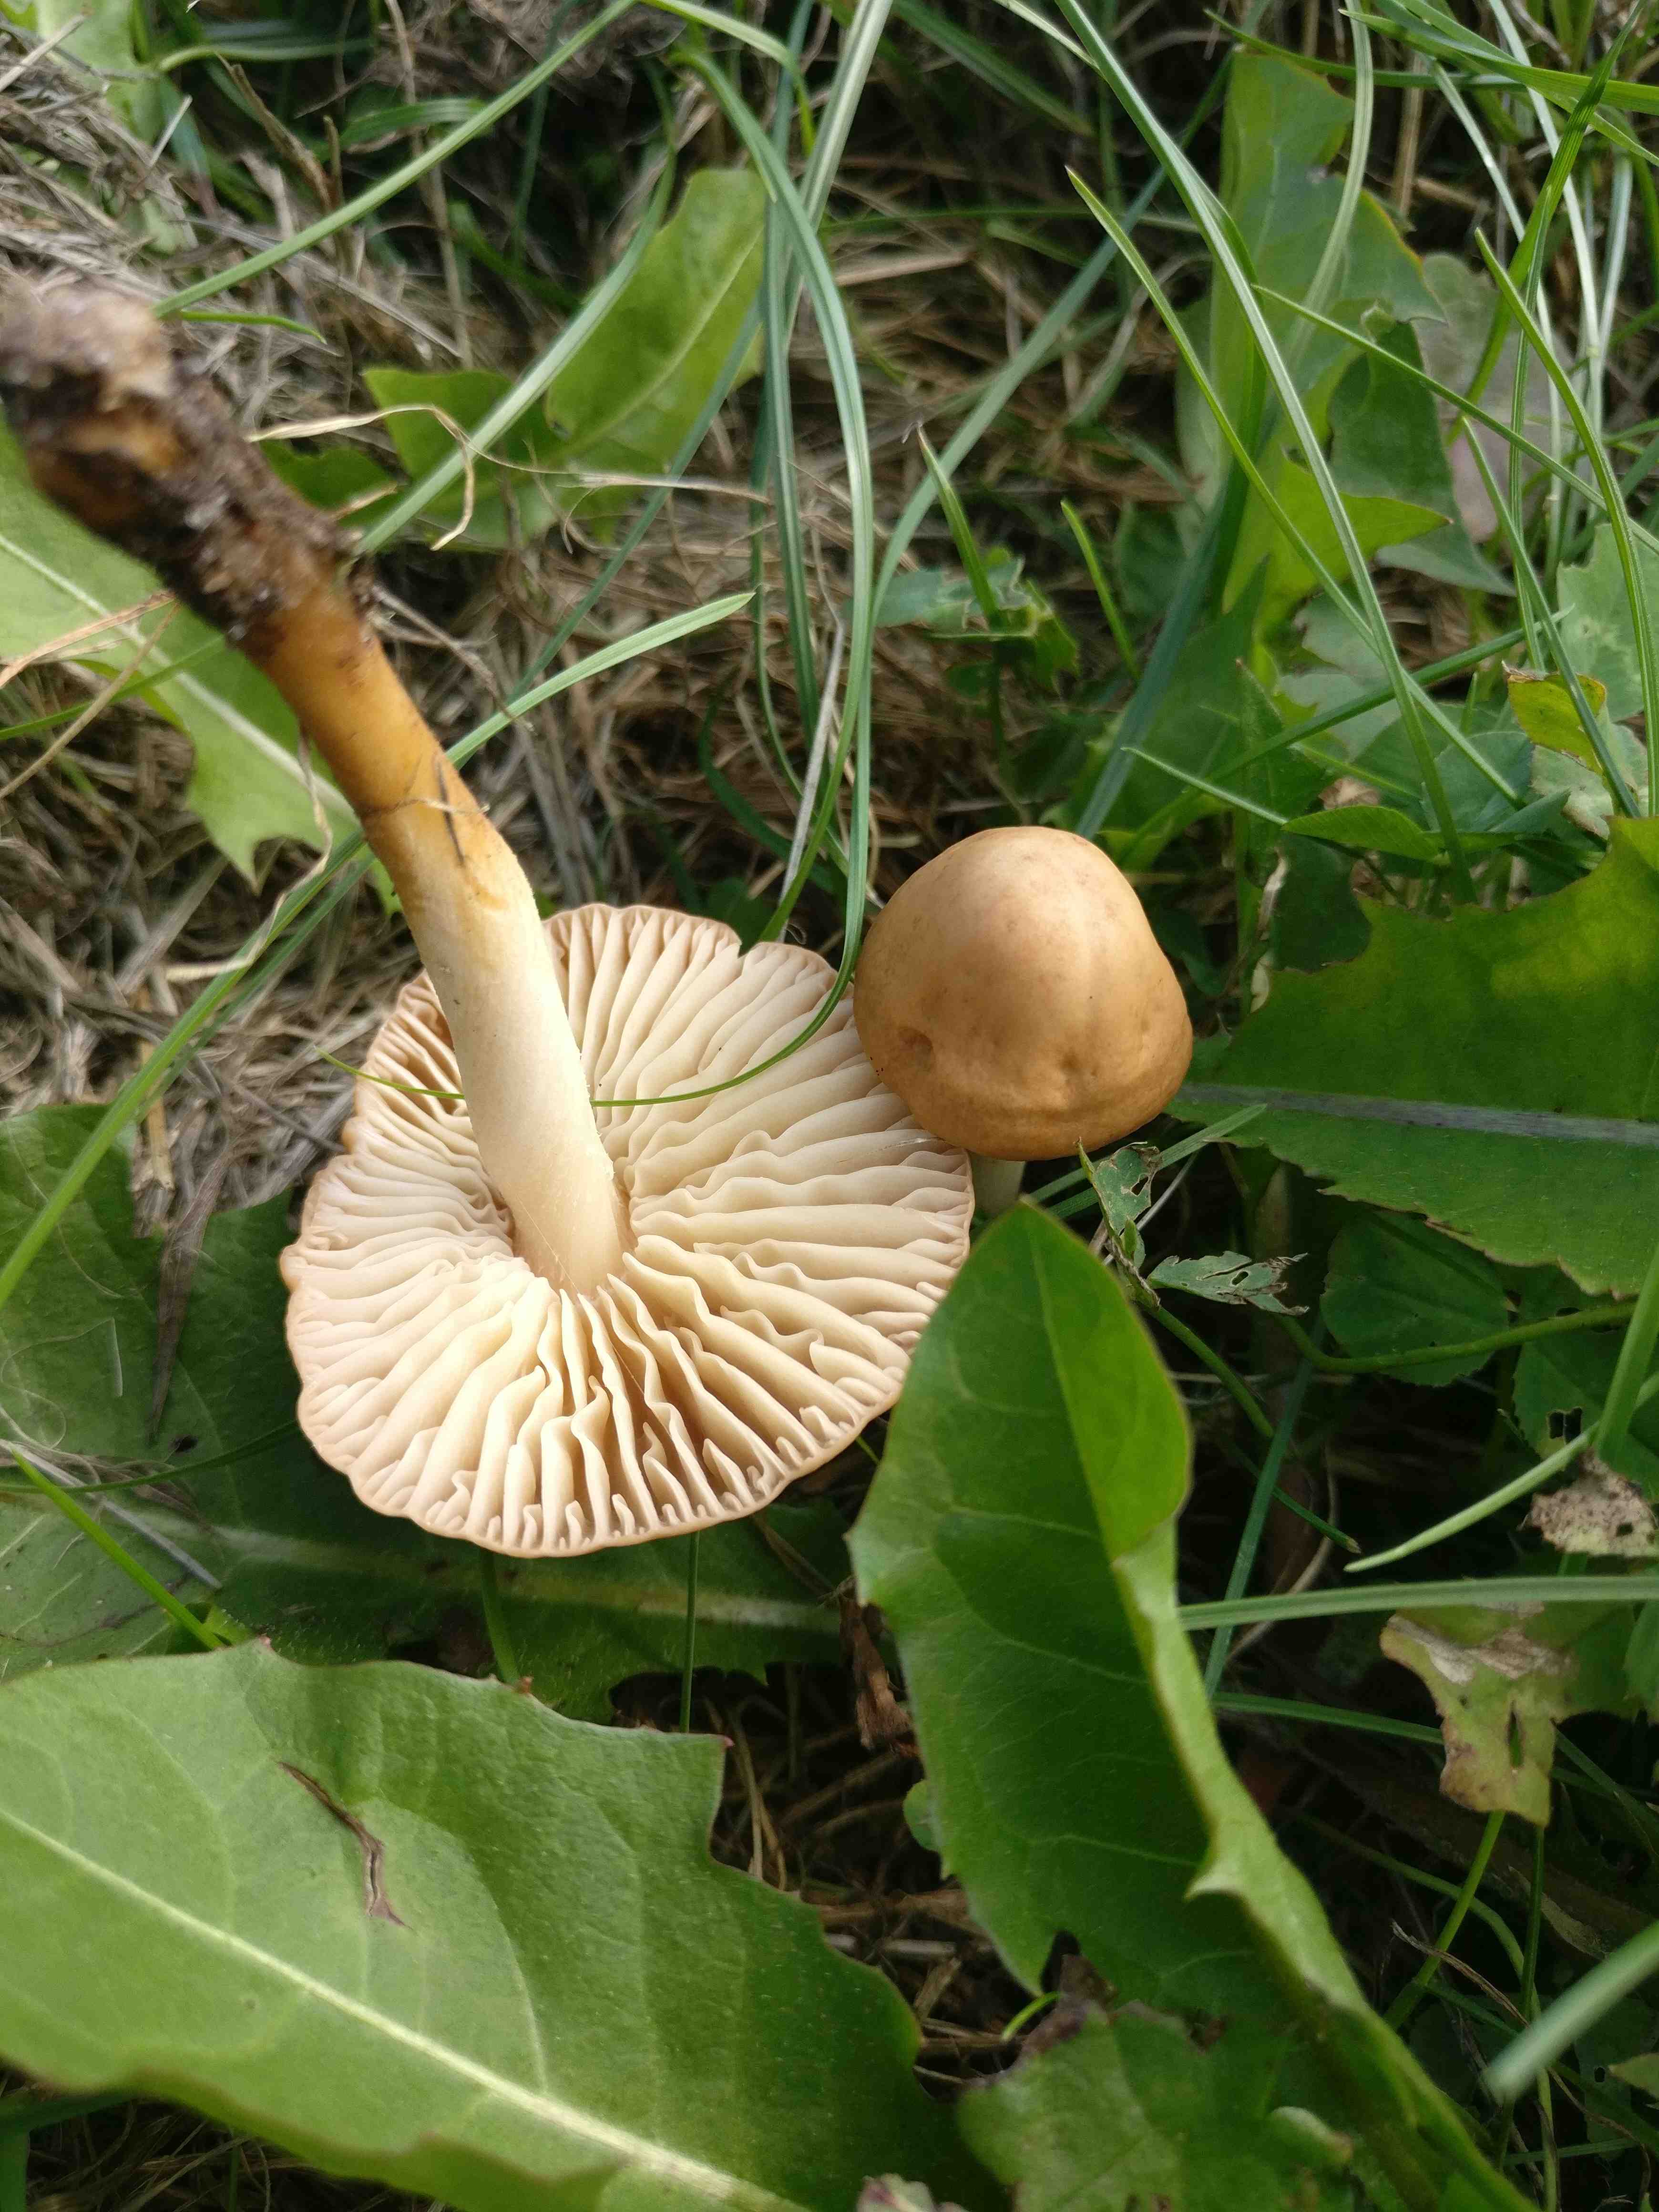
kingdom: Fungi
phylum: Basidiomycota
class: Agaricomycetes
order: Agaricales
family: Marasmiaceae
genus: Marasmius
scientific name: Marasmius oreades
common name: elledans-bruskhat
